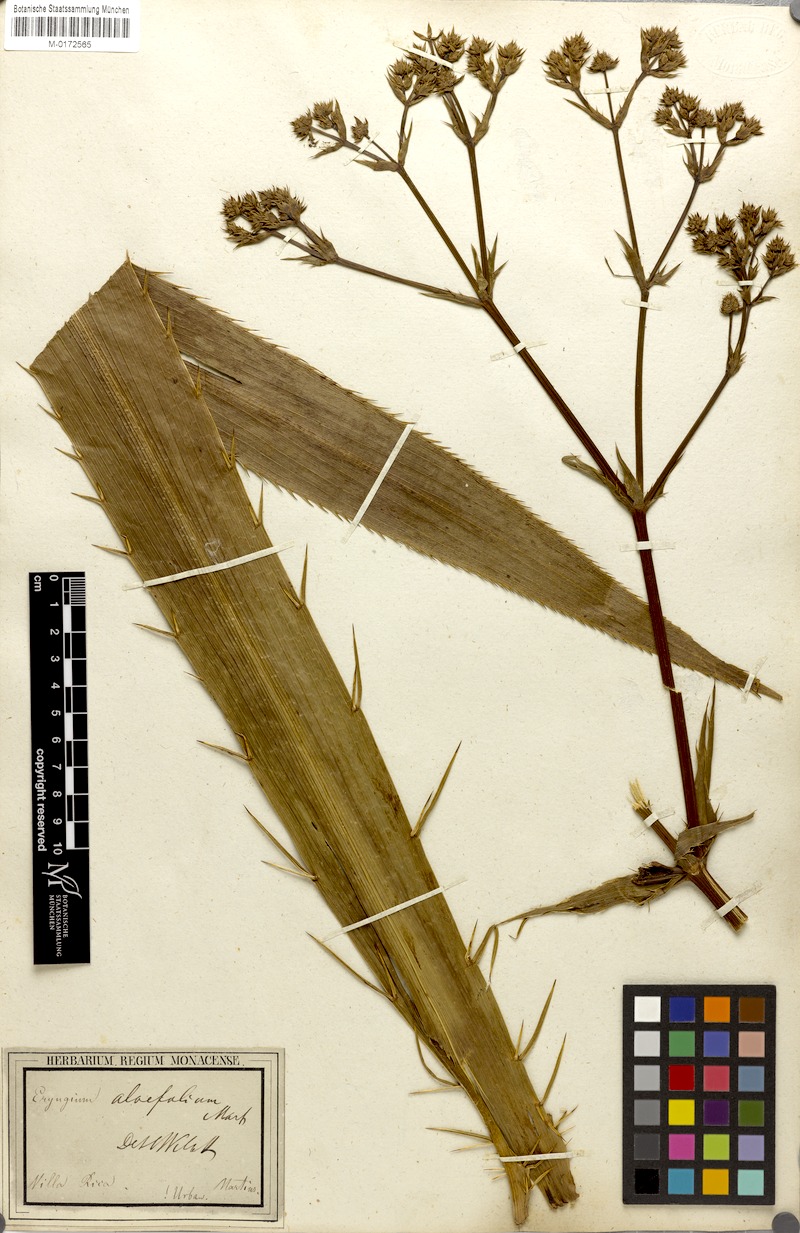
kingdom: Plantae
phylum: Tracheophyta
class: Magnoliopsida
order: Apiales
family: Apiaceae
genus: Eryngium
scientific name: Eryngium aloifolium
